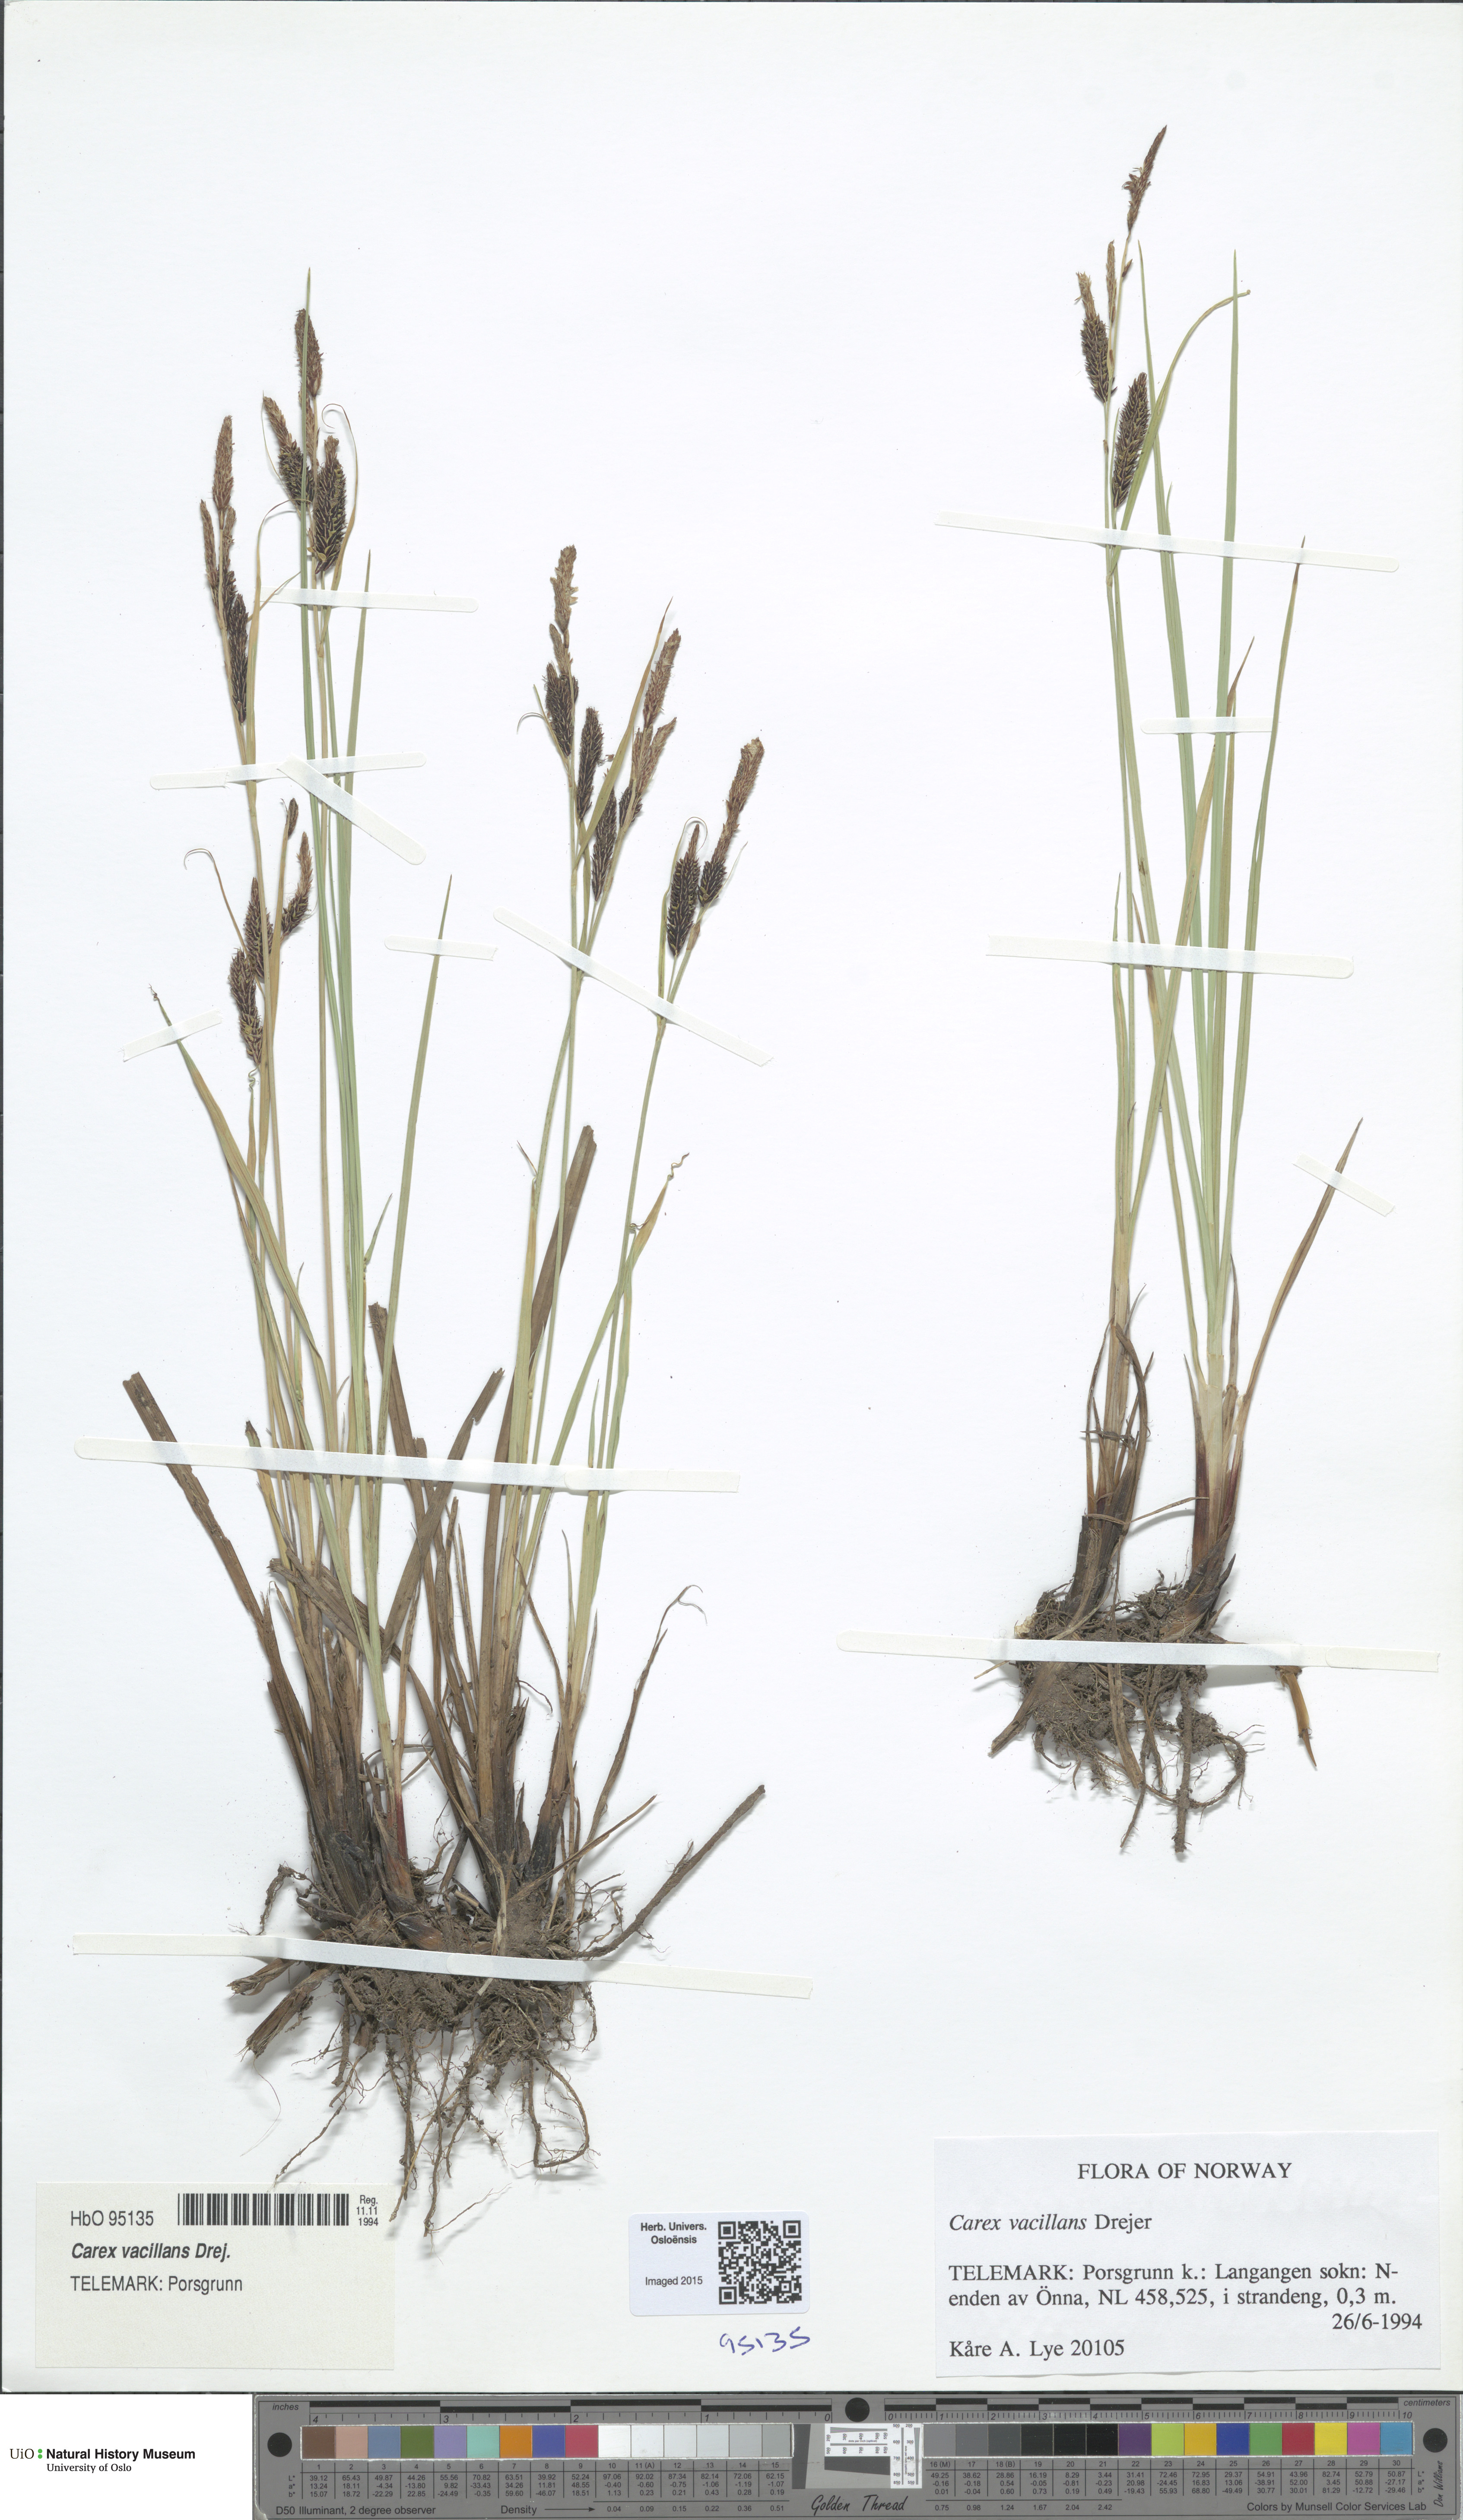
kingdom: Plantae
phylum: Tracheophyta
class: Liliopsida
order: Poales
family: Cyperaceae
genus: Carex
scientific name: Carex vacillans
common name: Sedge
